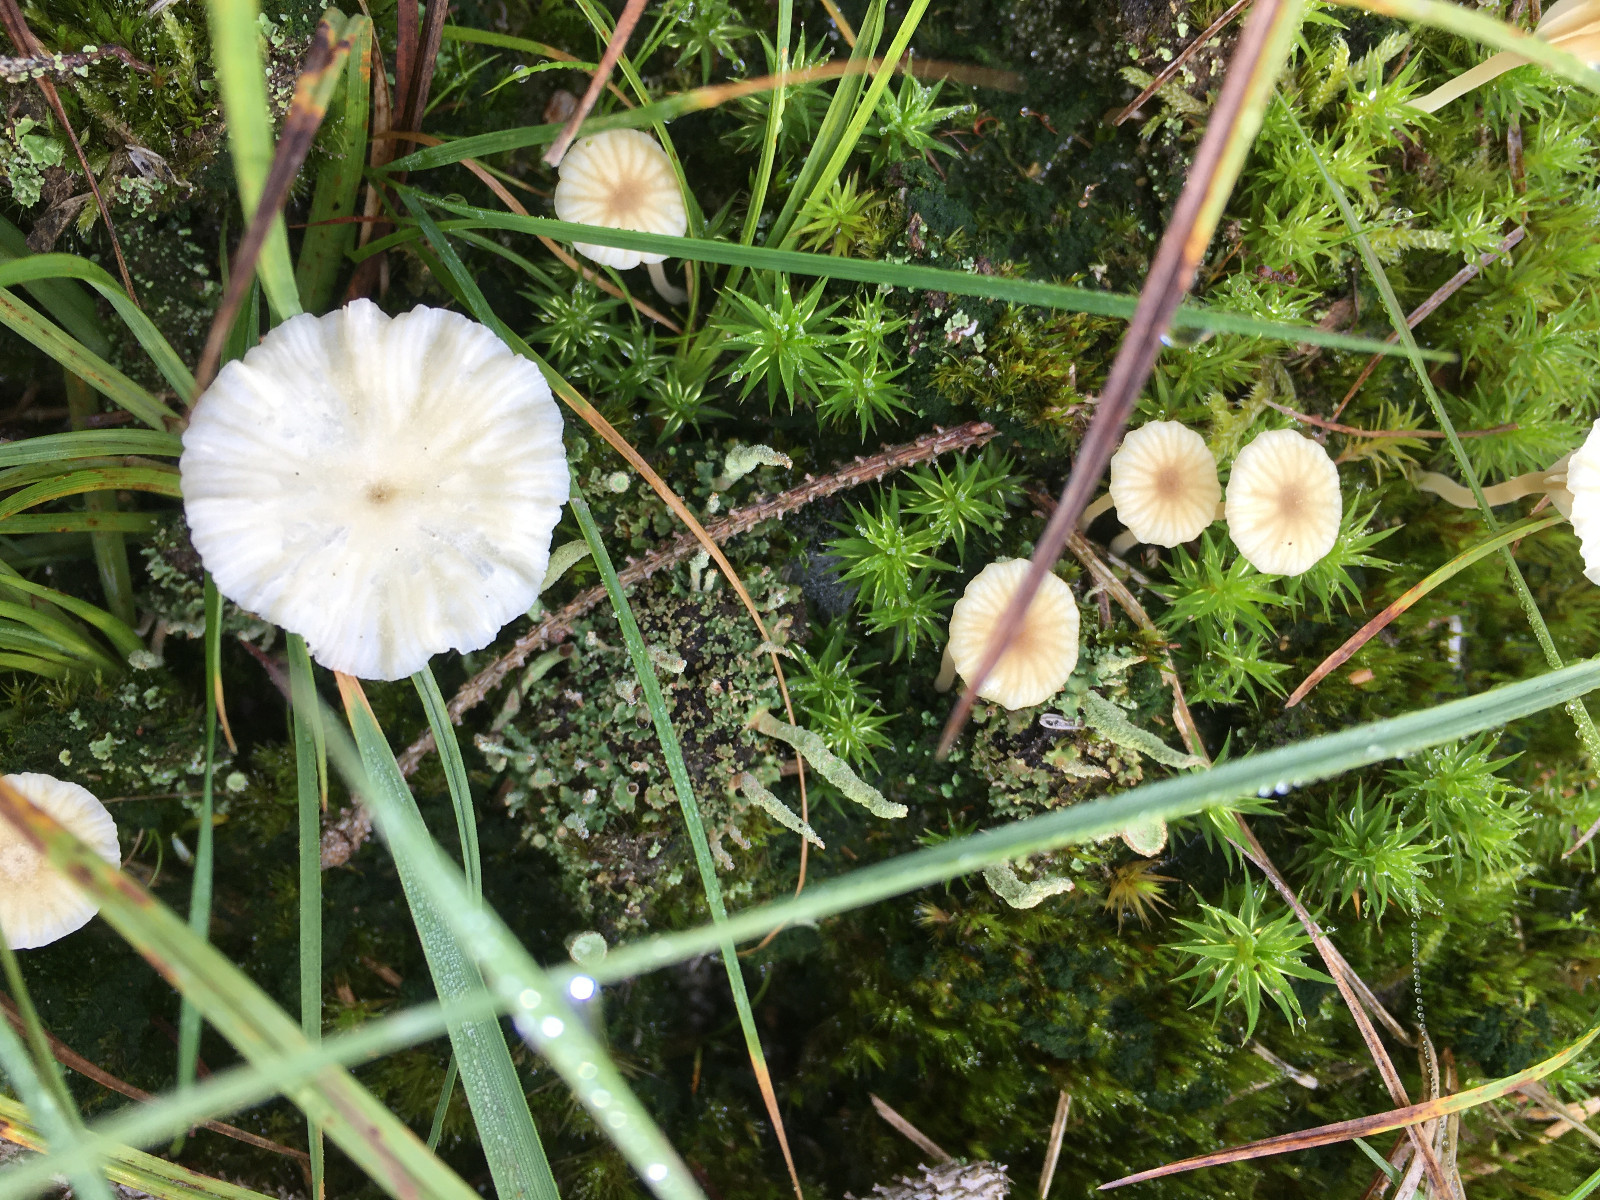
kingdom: Fungi
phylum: Basidiomycota
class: Agaricomycetes
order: Agaricales
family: Hygrophoraceae
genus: Lichenomphalia
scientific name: Lichenomphalia umbellifera
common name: tørve-lavhat
